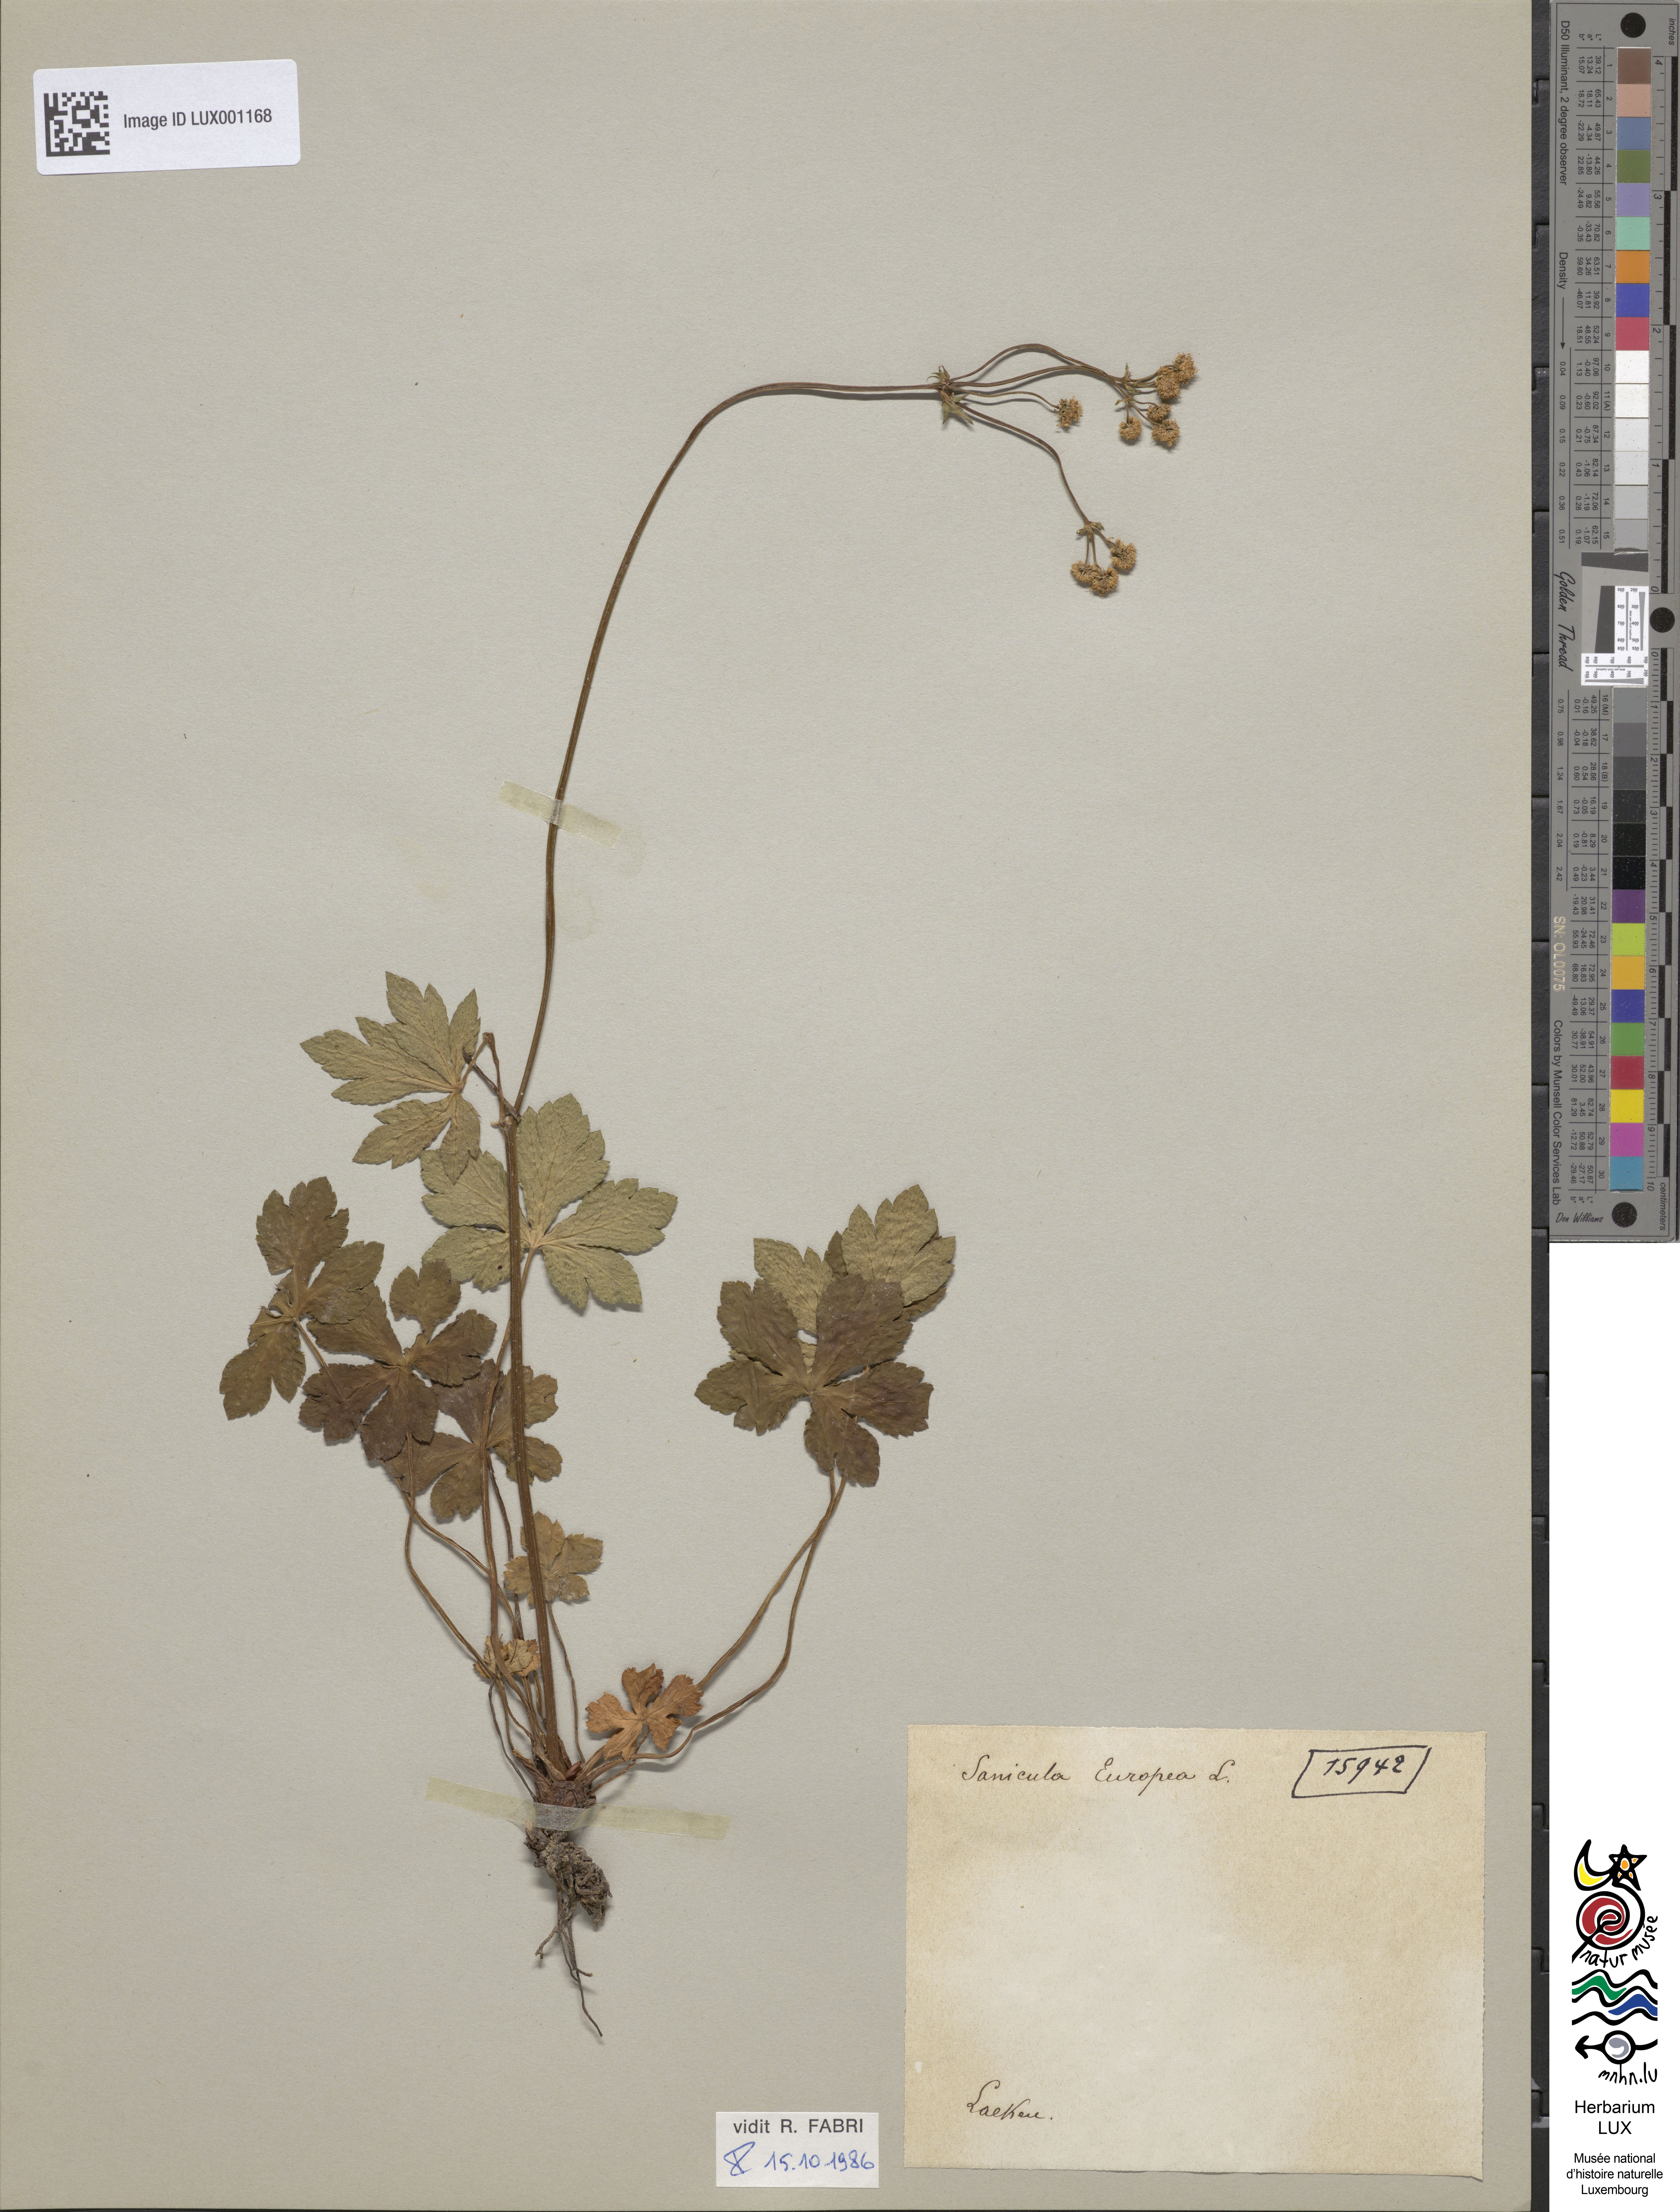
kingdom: Plantae
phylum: Tracheophyta
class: Magnoliopsida
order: Apiales
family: Apiaceae
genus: Sanicula
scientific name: Sanicula europaea
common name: Sanicle
